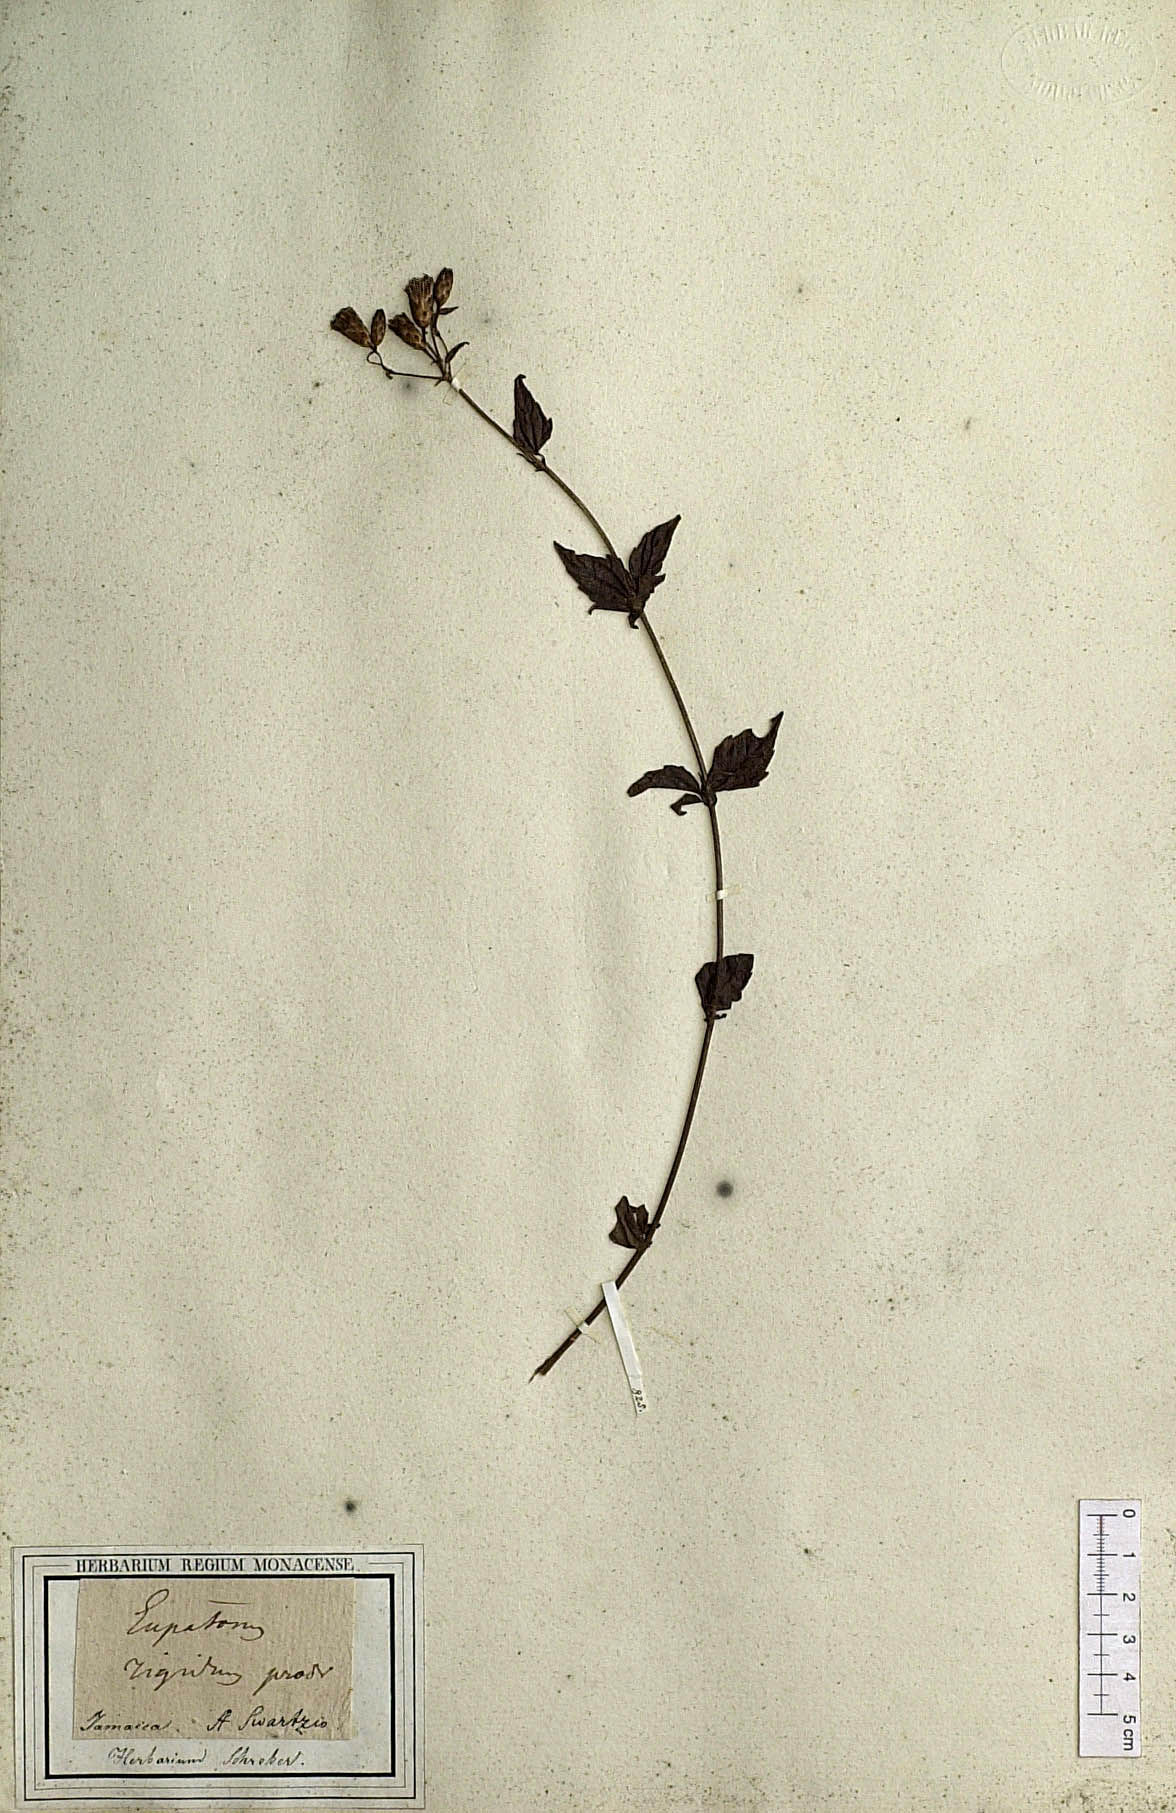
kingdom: Plantae
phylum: Tracheophyta
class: Magnoliopsida
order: Asterales
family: Asteraceae
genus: Chromolaena
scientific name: Chromolaena rigida
